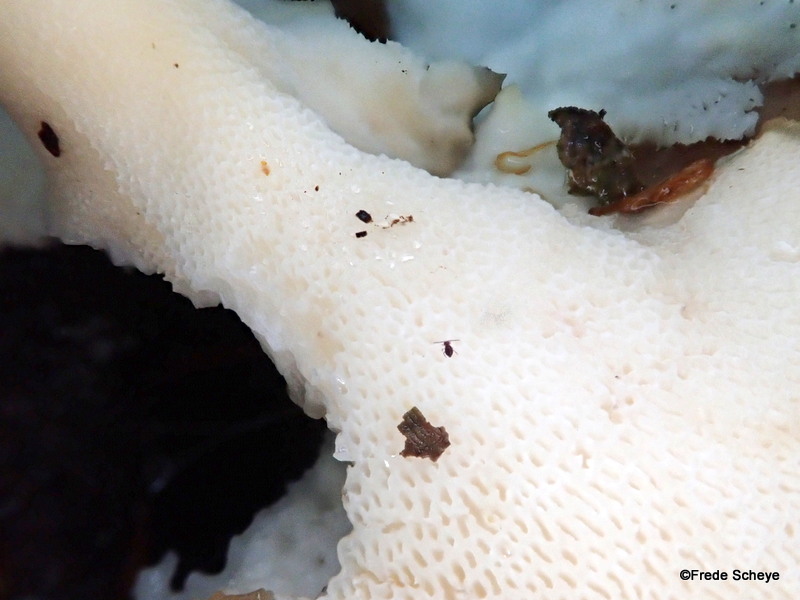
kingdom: Fungi
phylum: Basidiomycota
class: Agaricomycetes
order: Polyporales
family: Polyporaceae
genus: Cerioporus
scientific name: Cerioporus squamosus
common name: skællet stilkporesvamp
